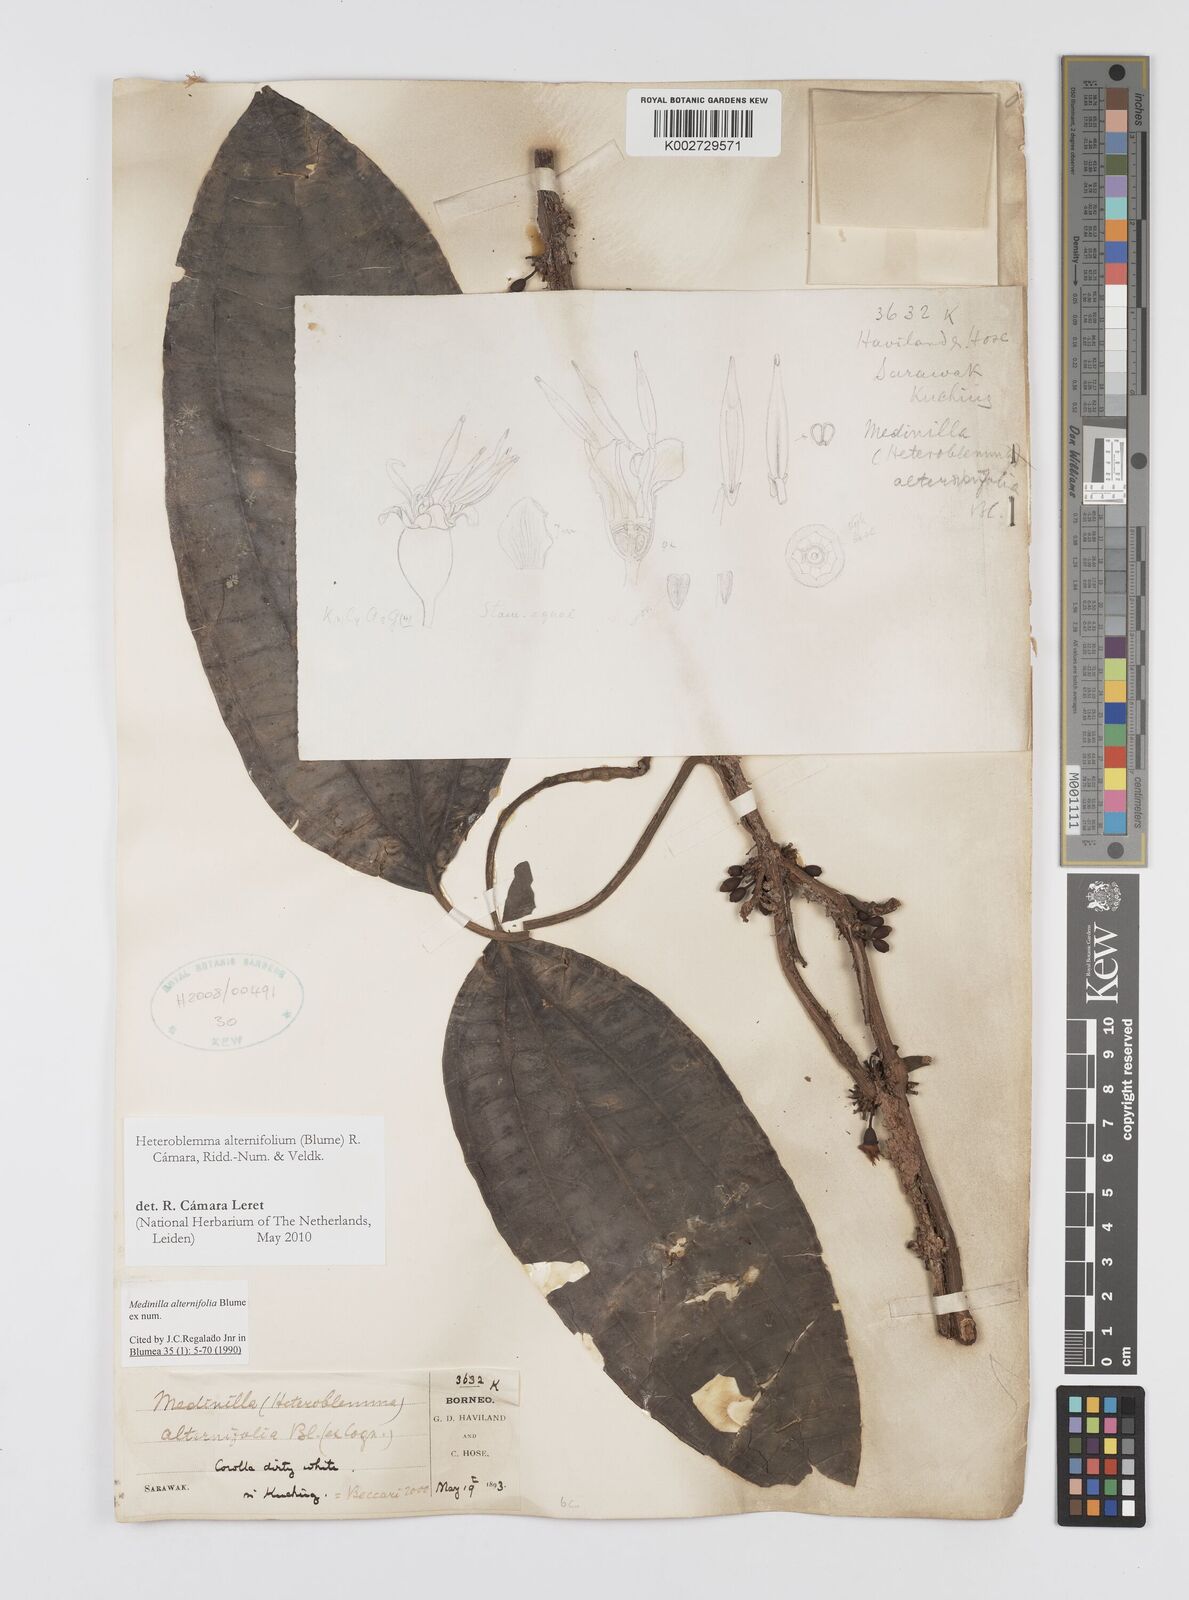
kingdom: Plantae
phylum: Tracheophyta
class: Magnoliopsida
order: Myrtales
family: Melastomataceae
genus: Heteroblemma
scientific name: Heteroblemma alternifolium
